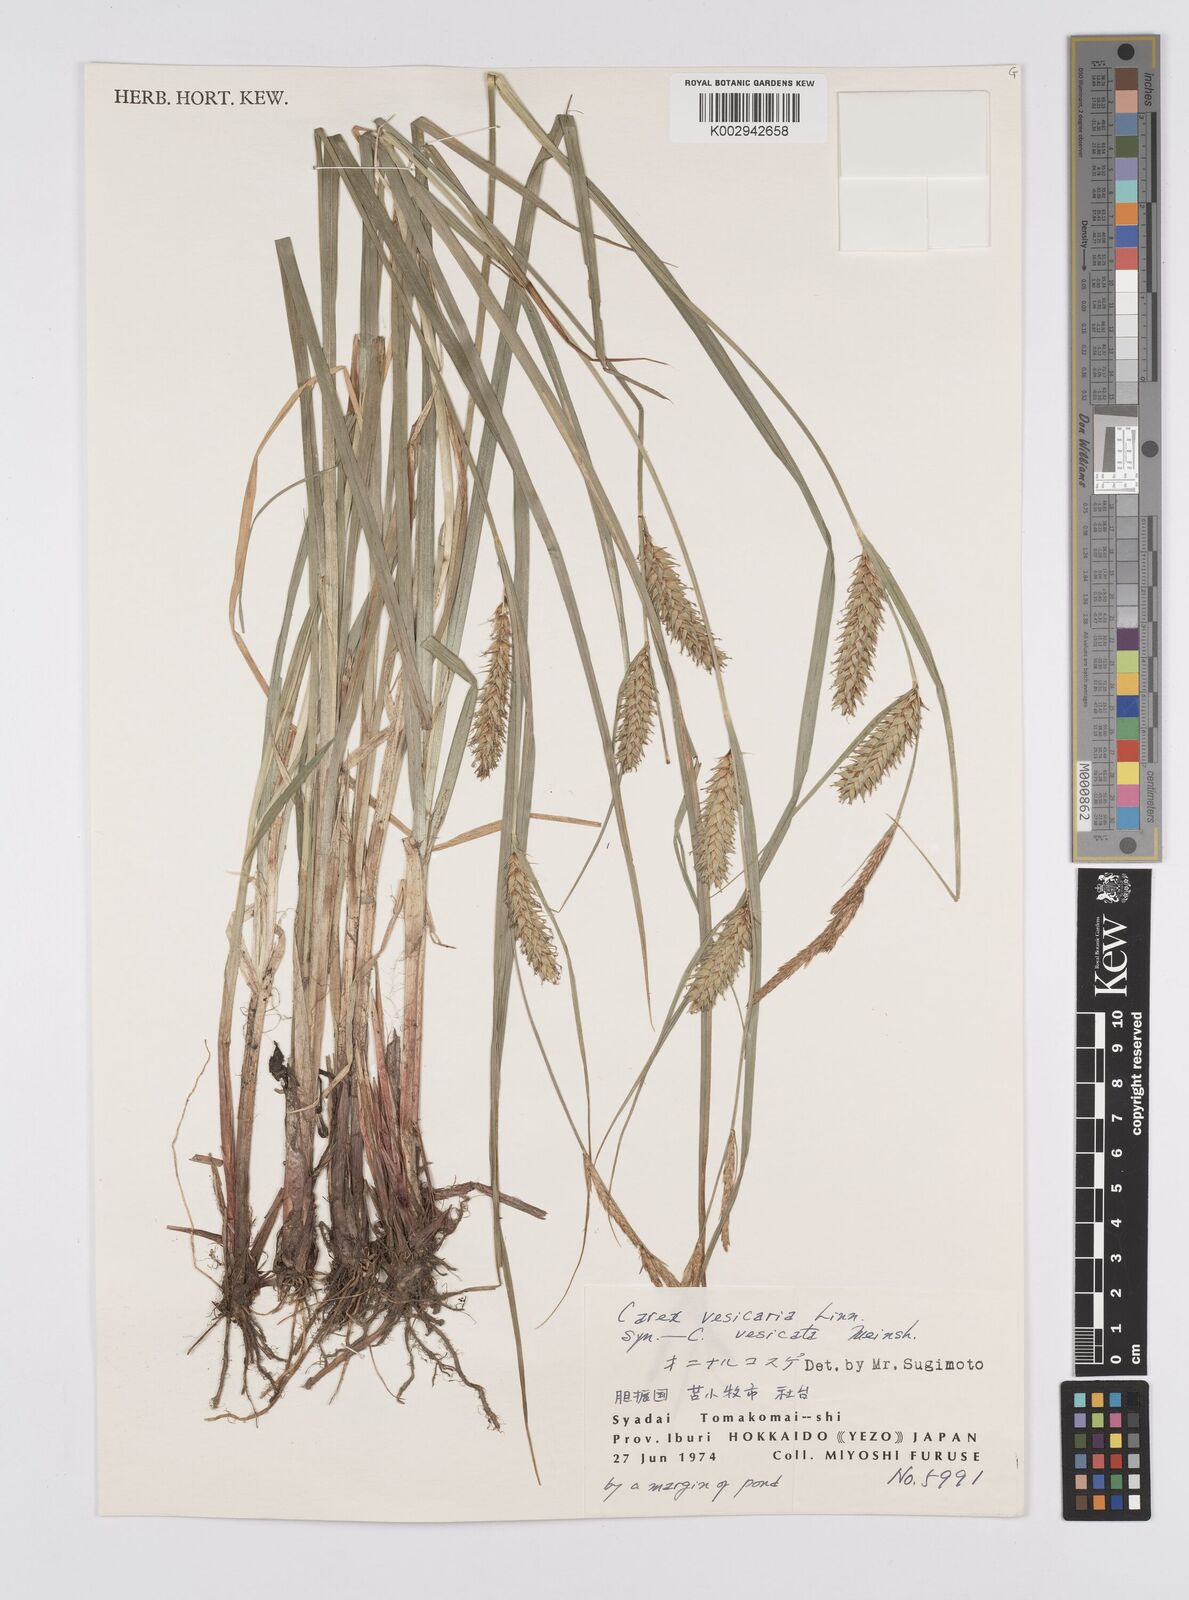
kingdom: Plantae
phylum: Tracheophyta
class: Liliopsida
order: Poales
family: Cyperaceae
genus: Carex
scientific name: Carex vesicaria
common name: Bladder-sedge
